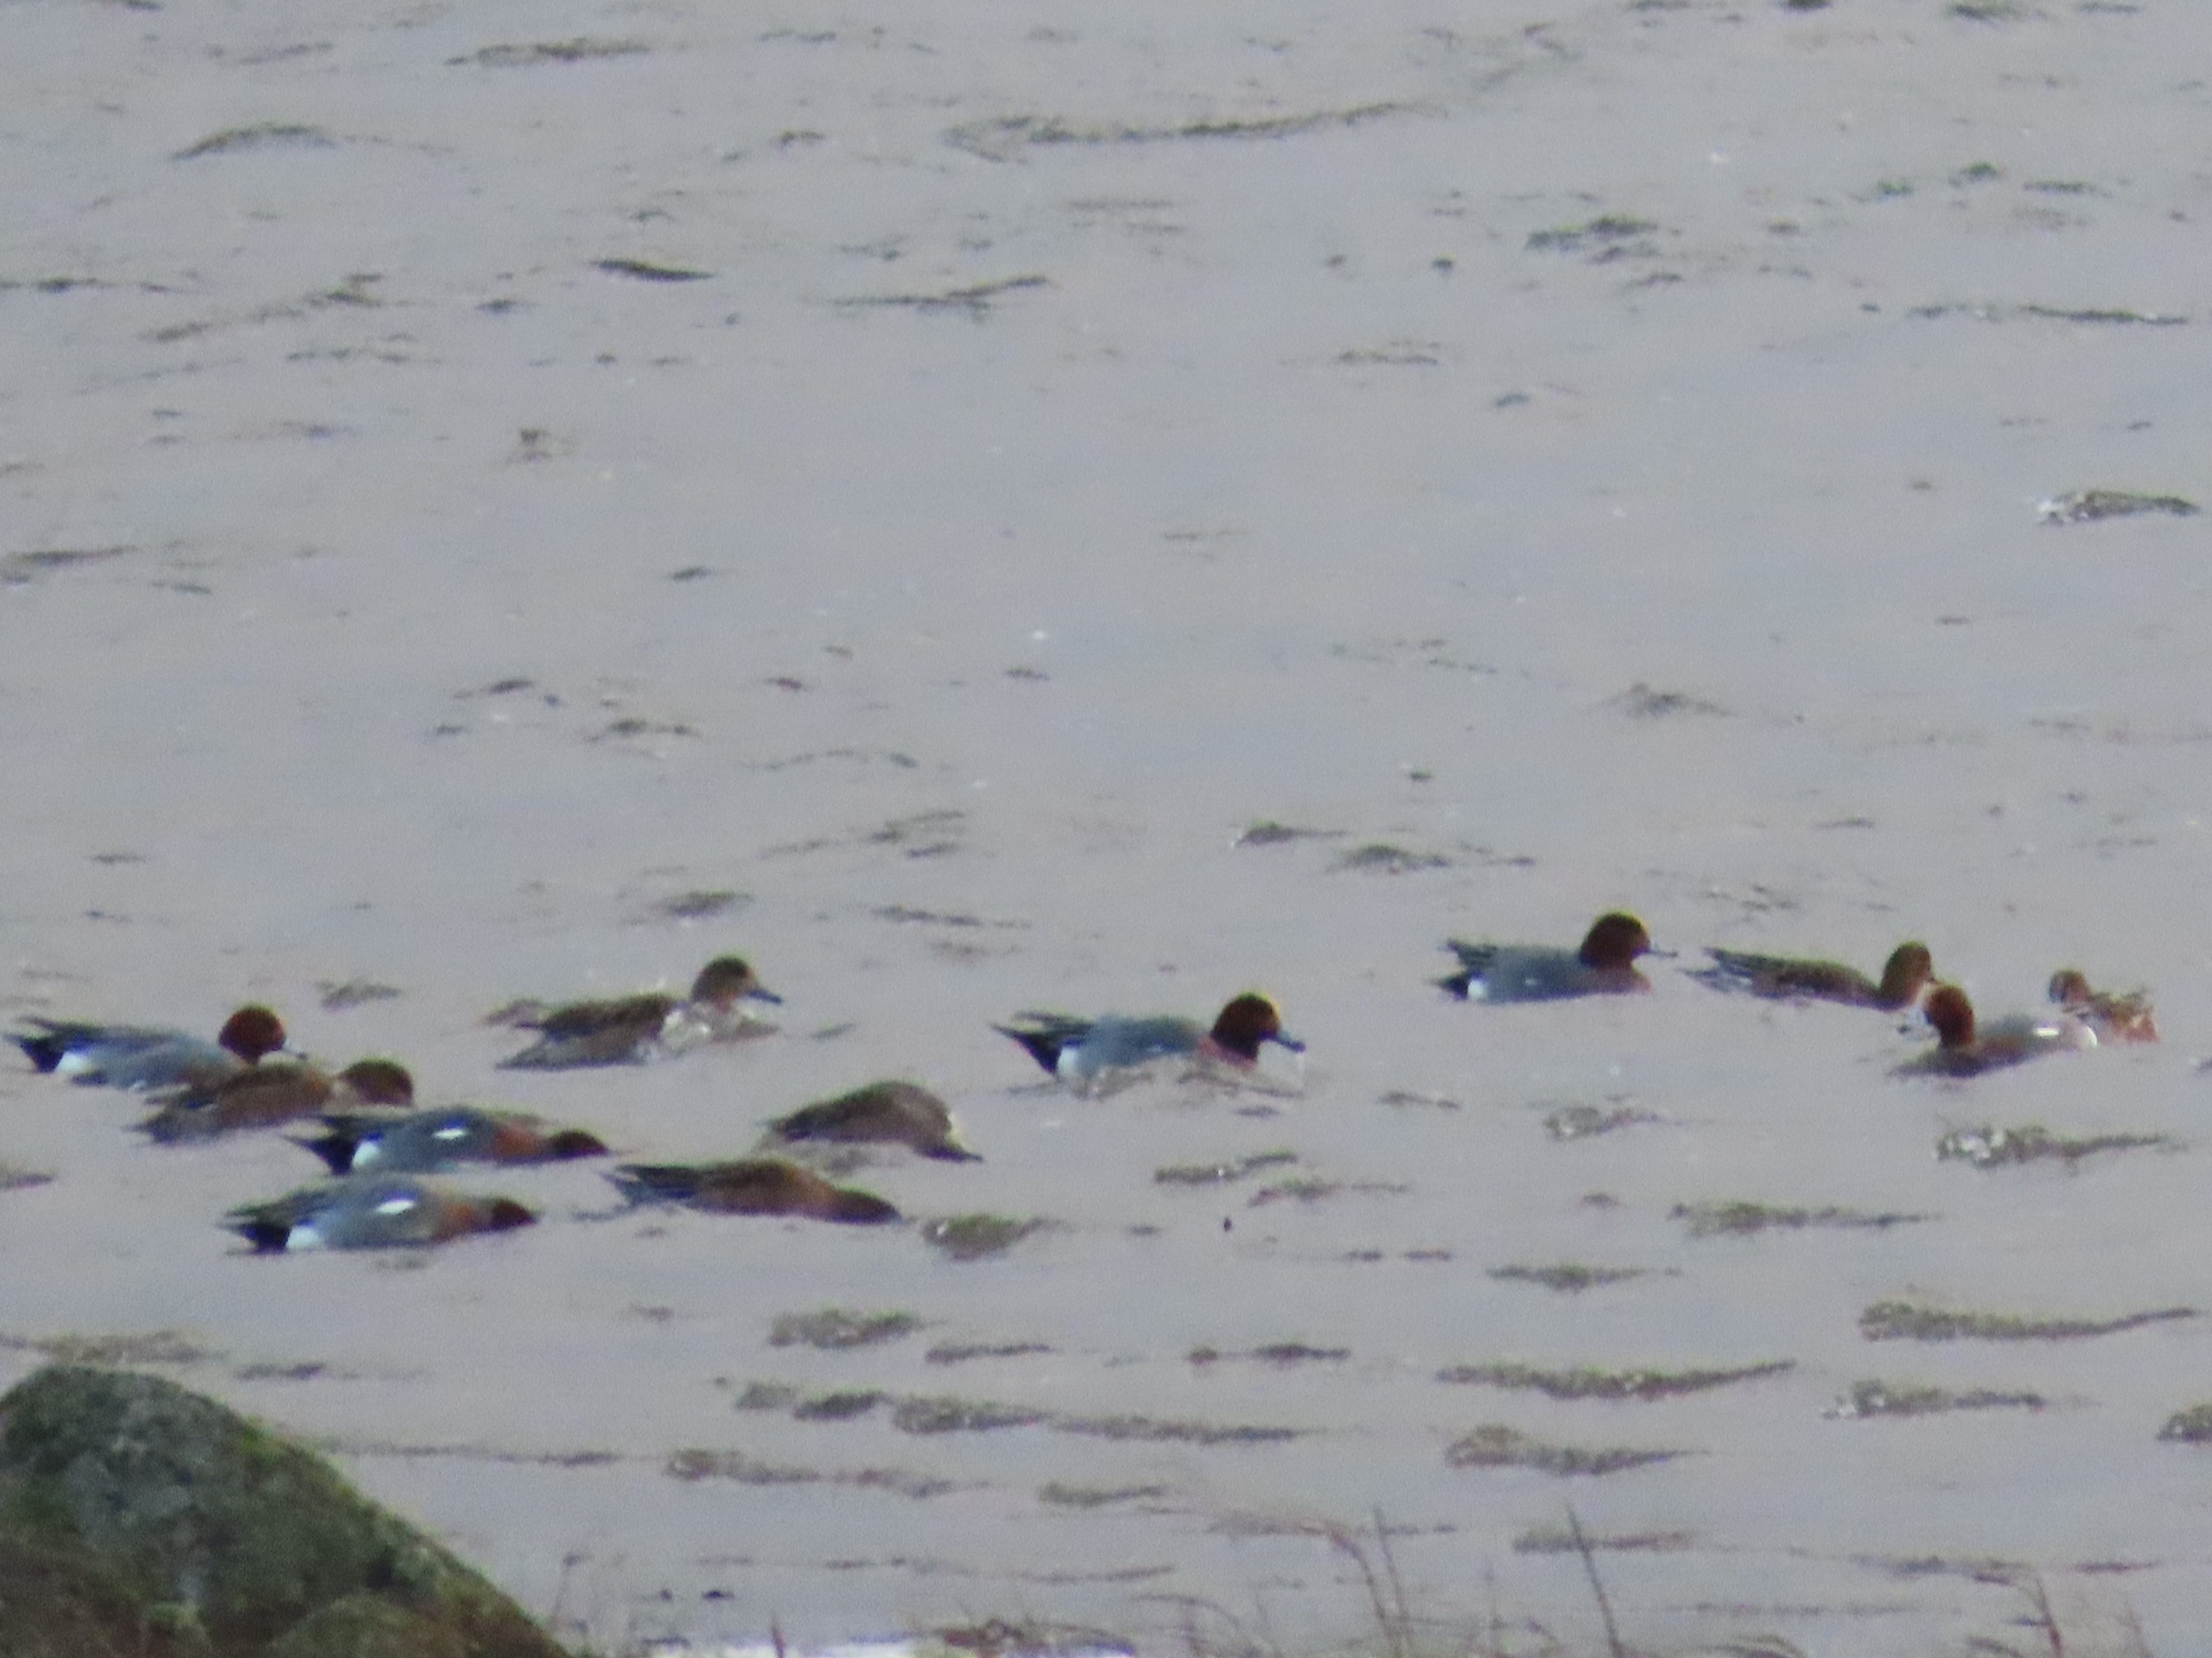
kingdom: Animalia
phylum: Chordata
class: Aves
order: Anseriformes
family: Anatidae
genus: Mareca
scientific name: Mareca penelope
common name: Pibeand
